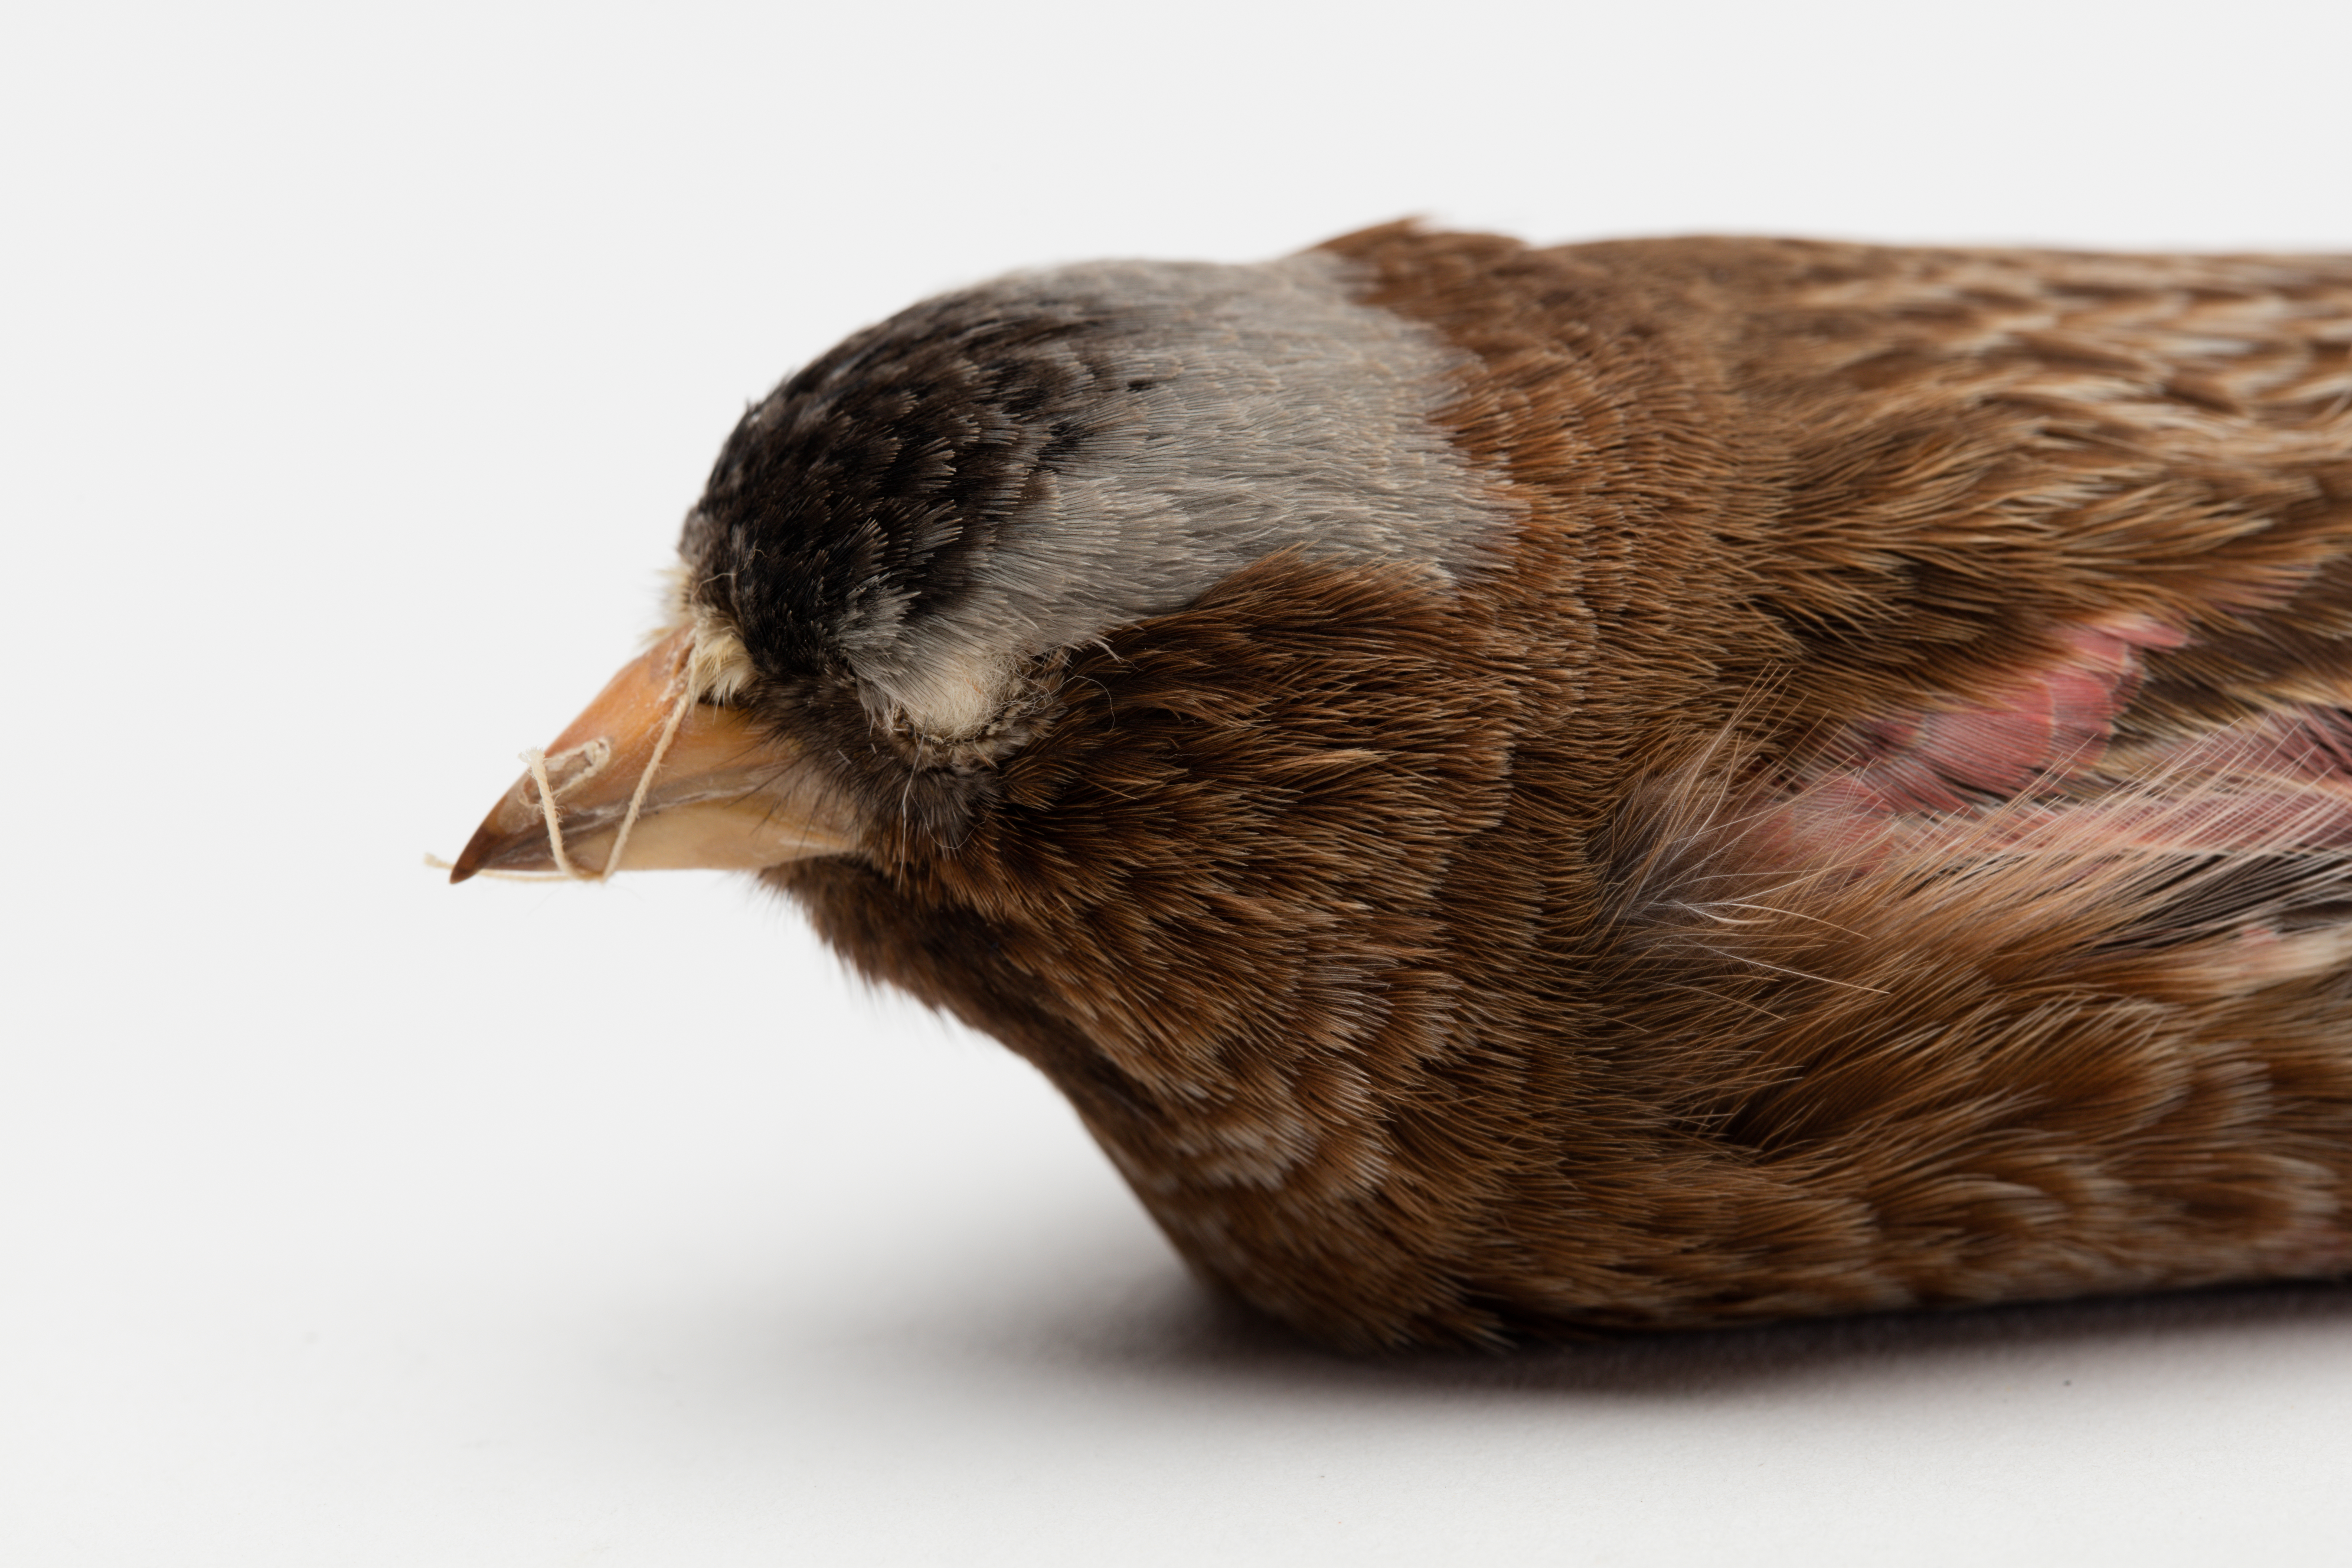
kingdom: Animalia
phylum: Chordata
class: Aves
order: Passeriformes
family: Fringillidae
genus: Leucosticte
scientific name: Leucosticte arctoa
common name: Asian rosy finch
